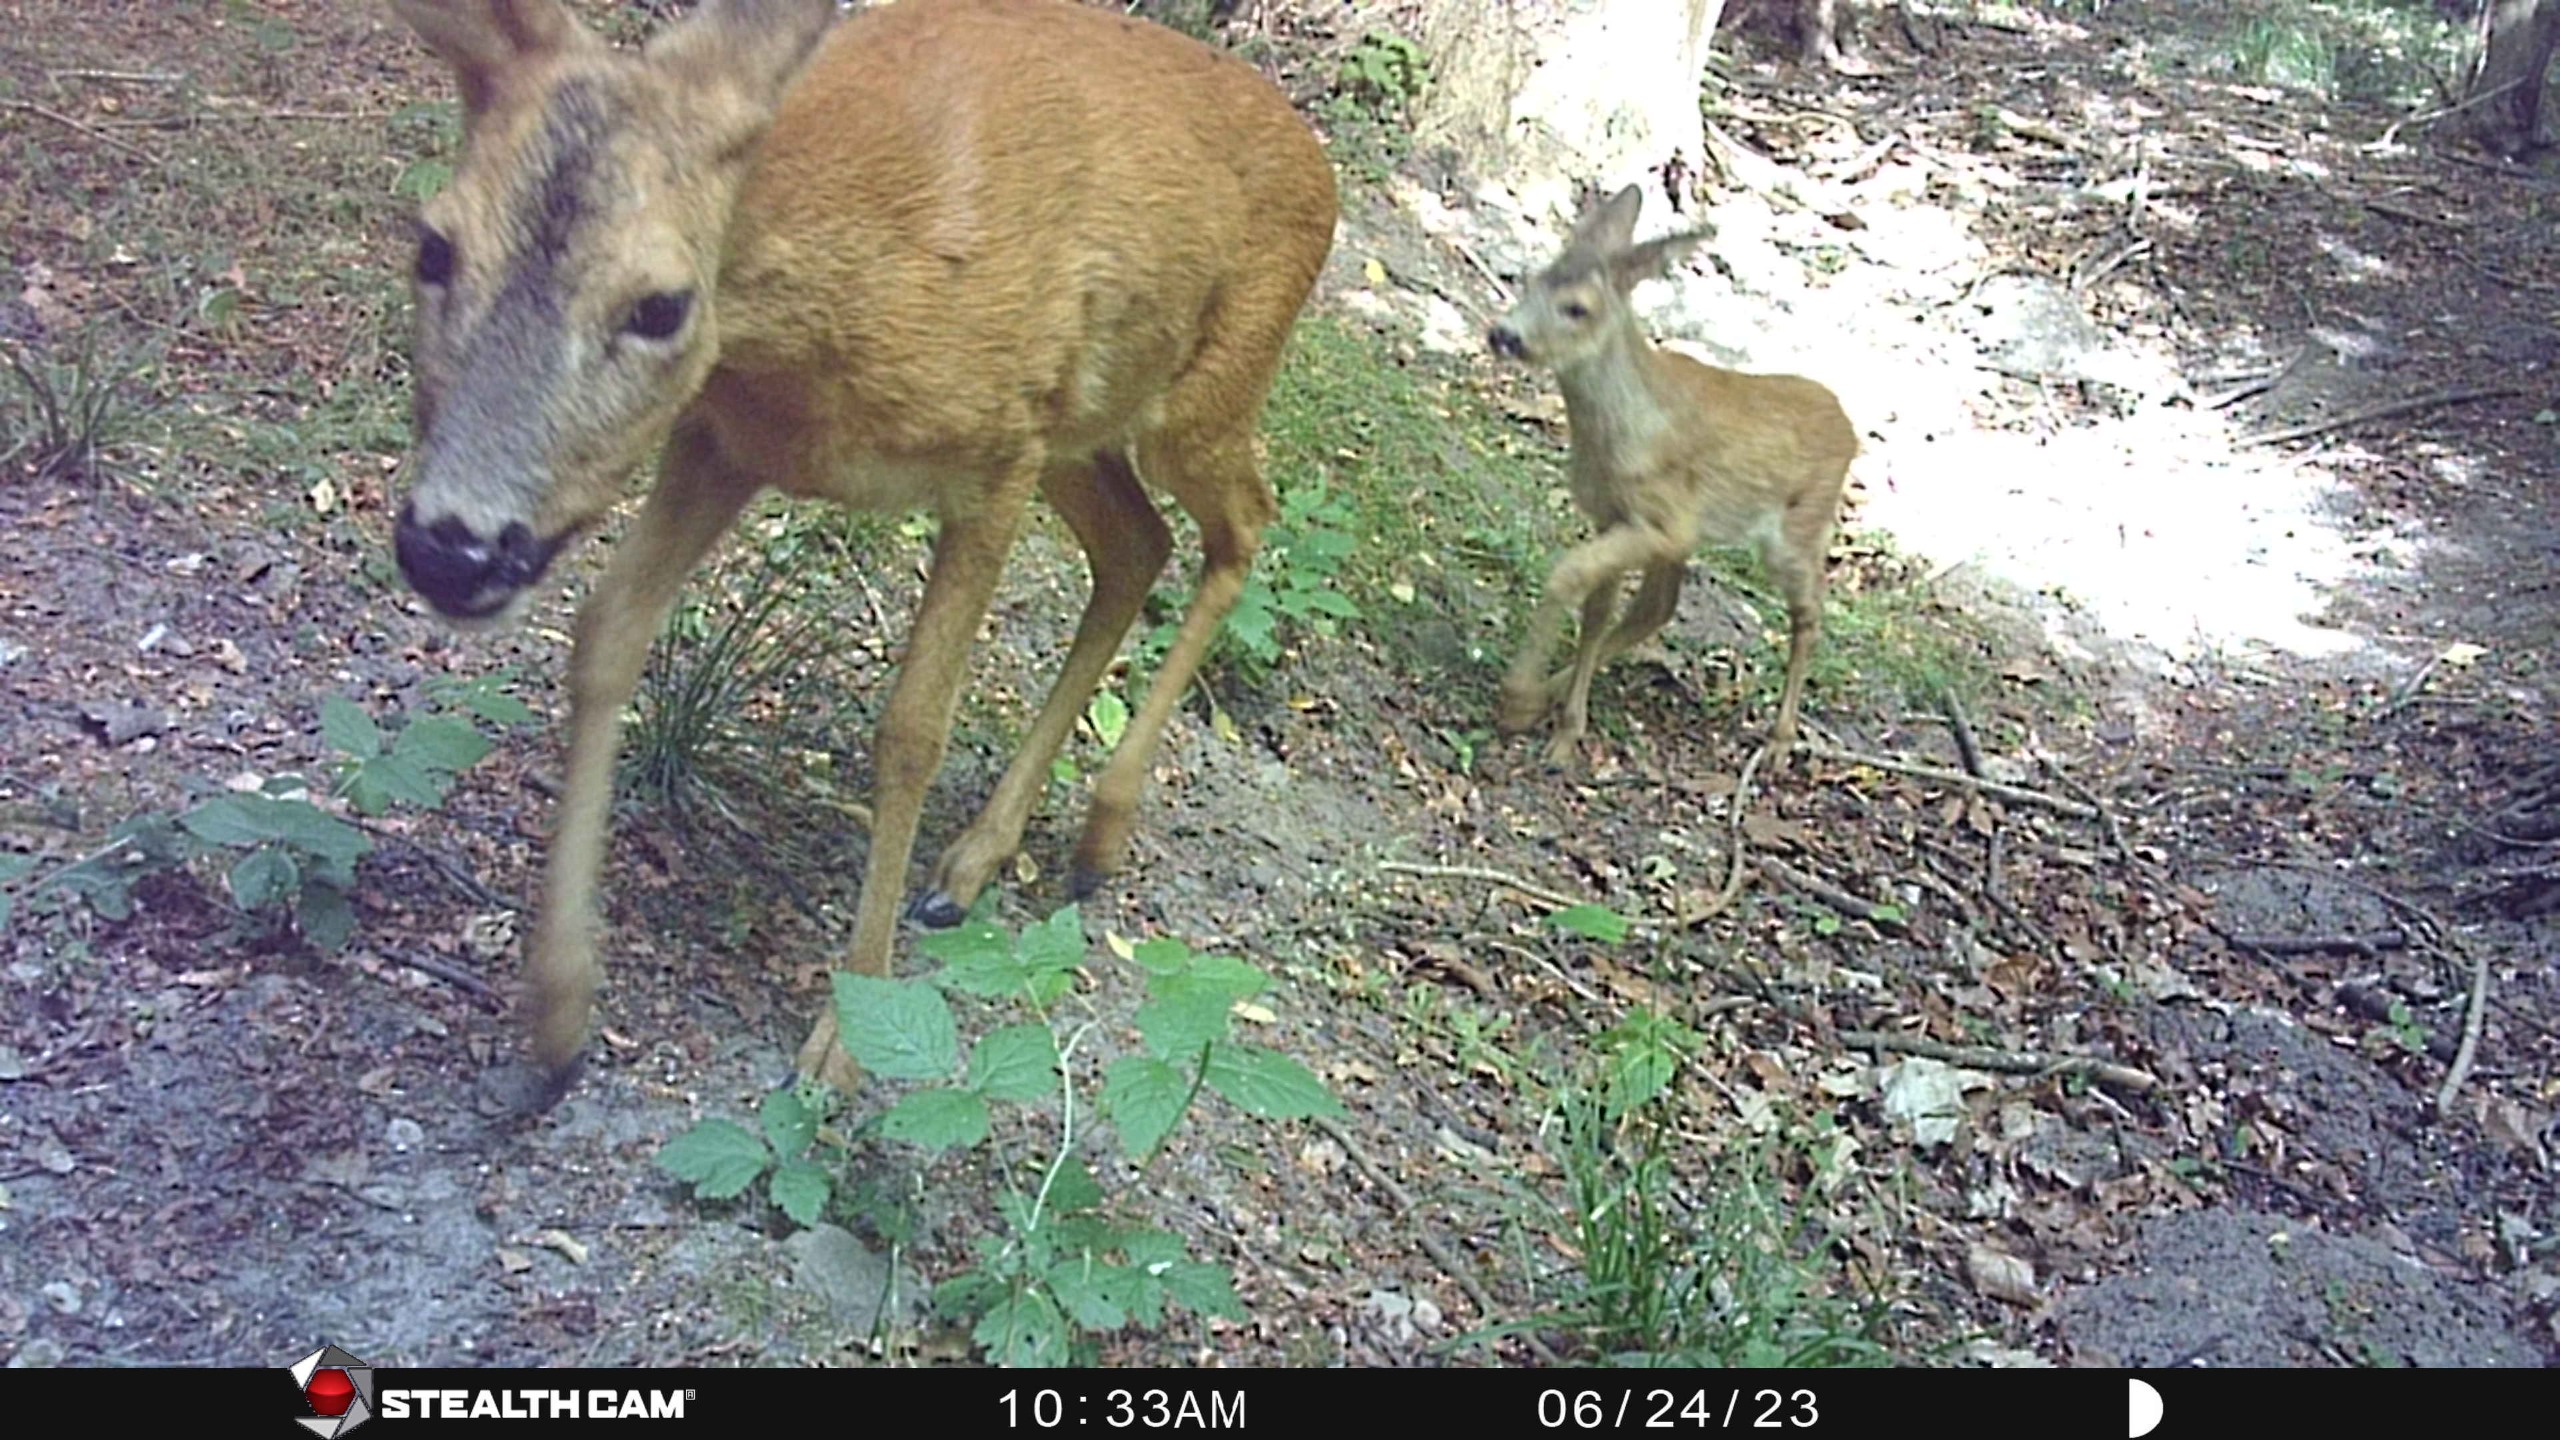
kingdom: Animalia
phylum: Chordata
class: Mammalia
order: Artiodactyla
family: Cervidae
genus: Capreolus
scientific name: Capreolus capreolus
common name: Rådyr
